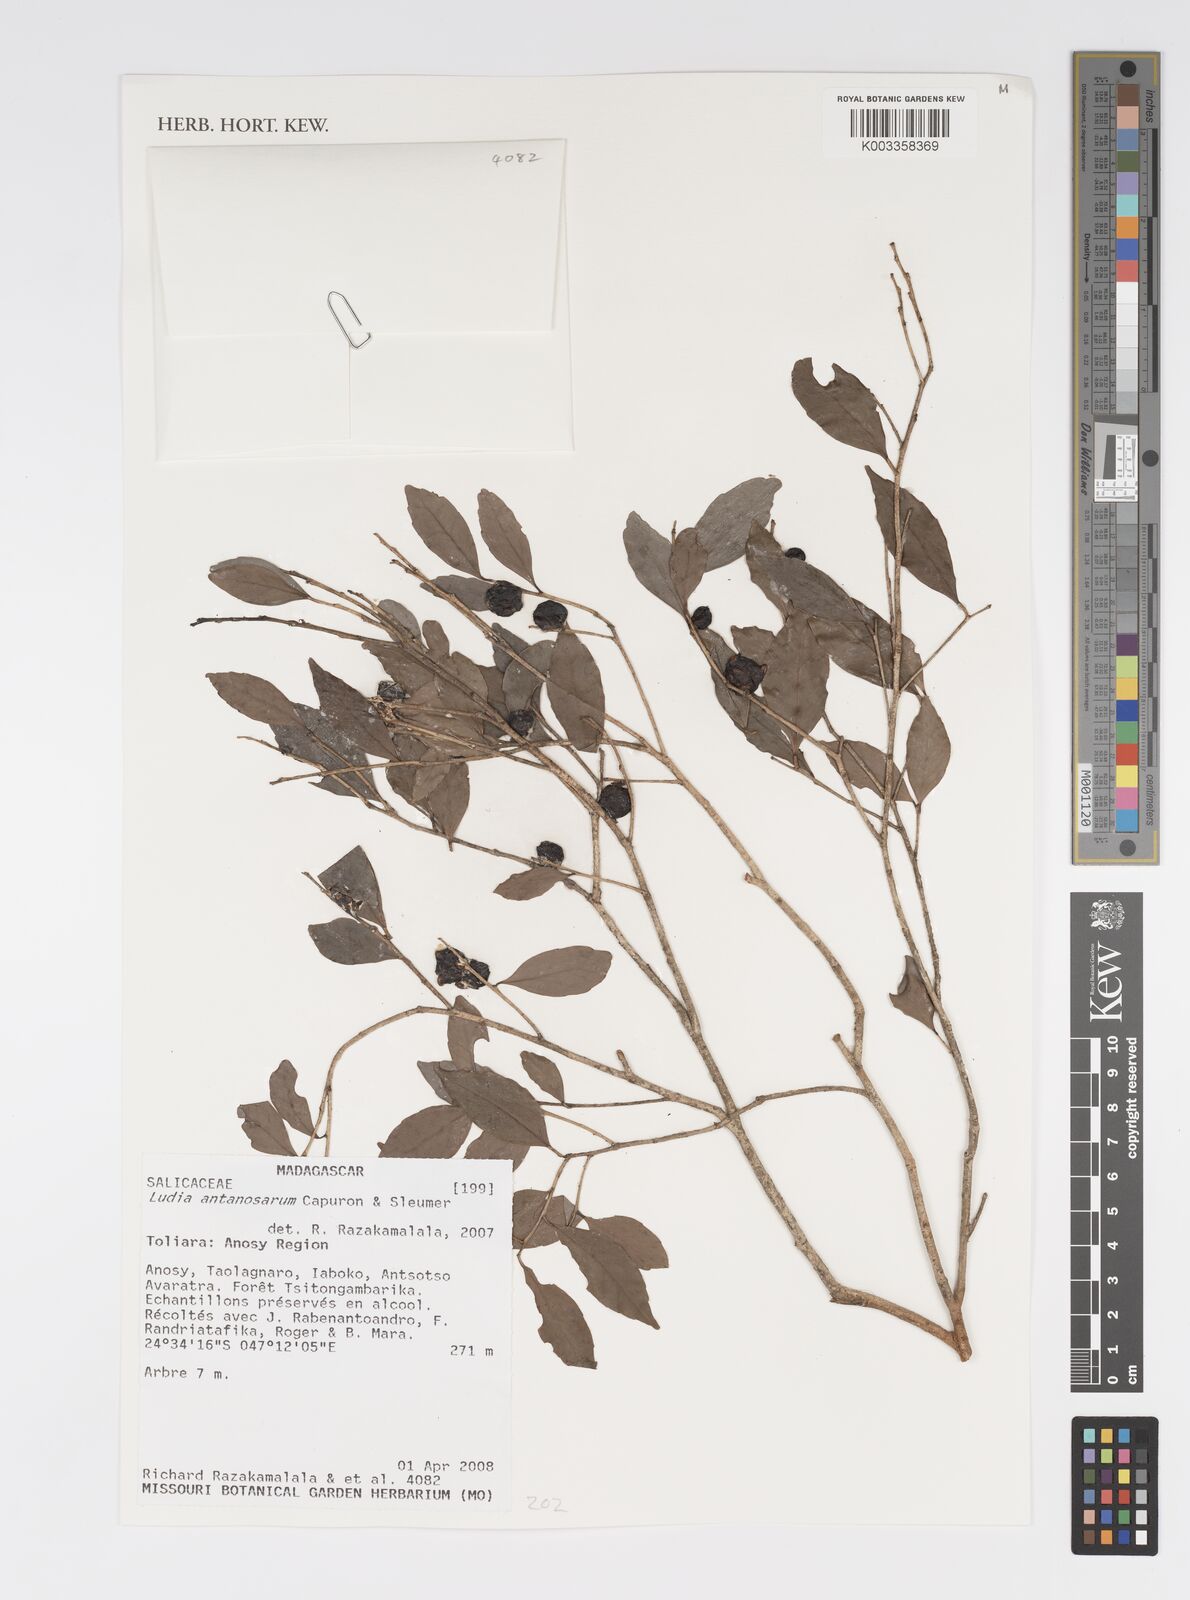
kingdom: Plantae
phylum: Tracheophyta
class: Magnoliopsida
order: Malpighiales
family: Salicaceae
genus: Ludia
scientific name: Ludia antanosarum
